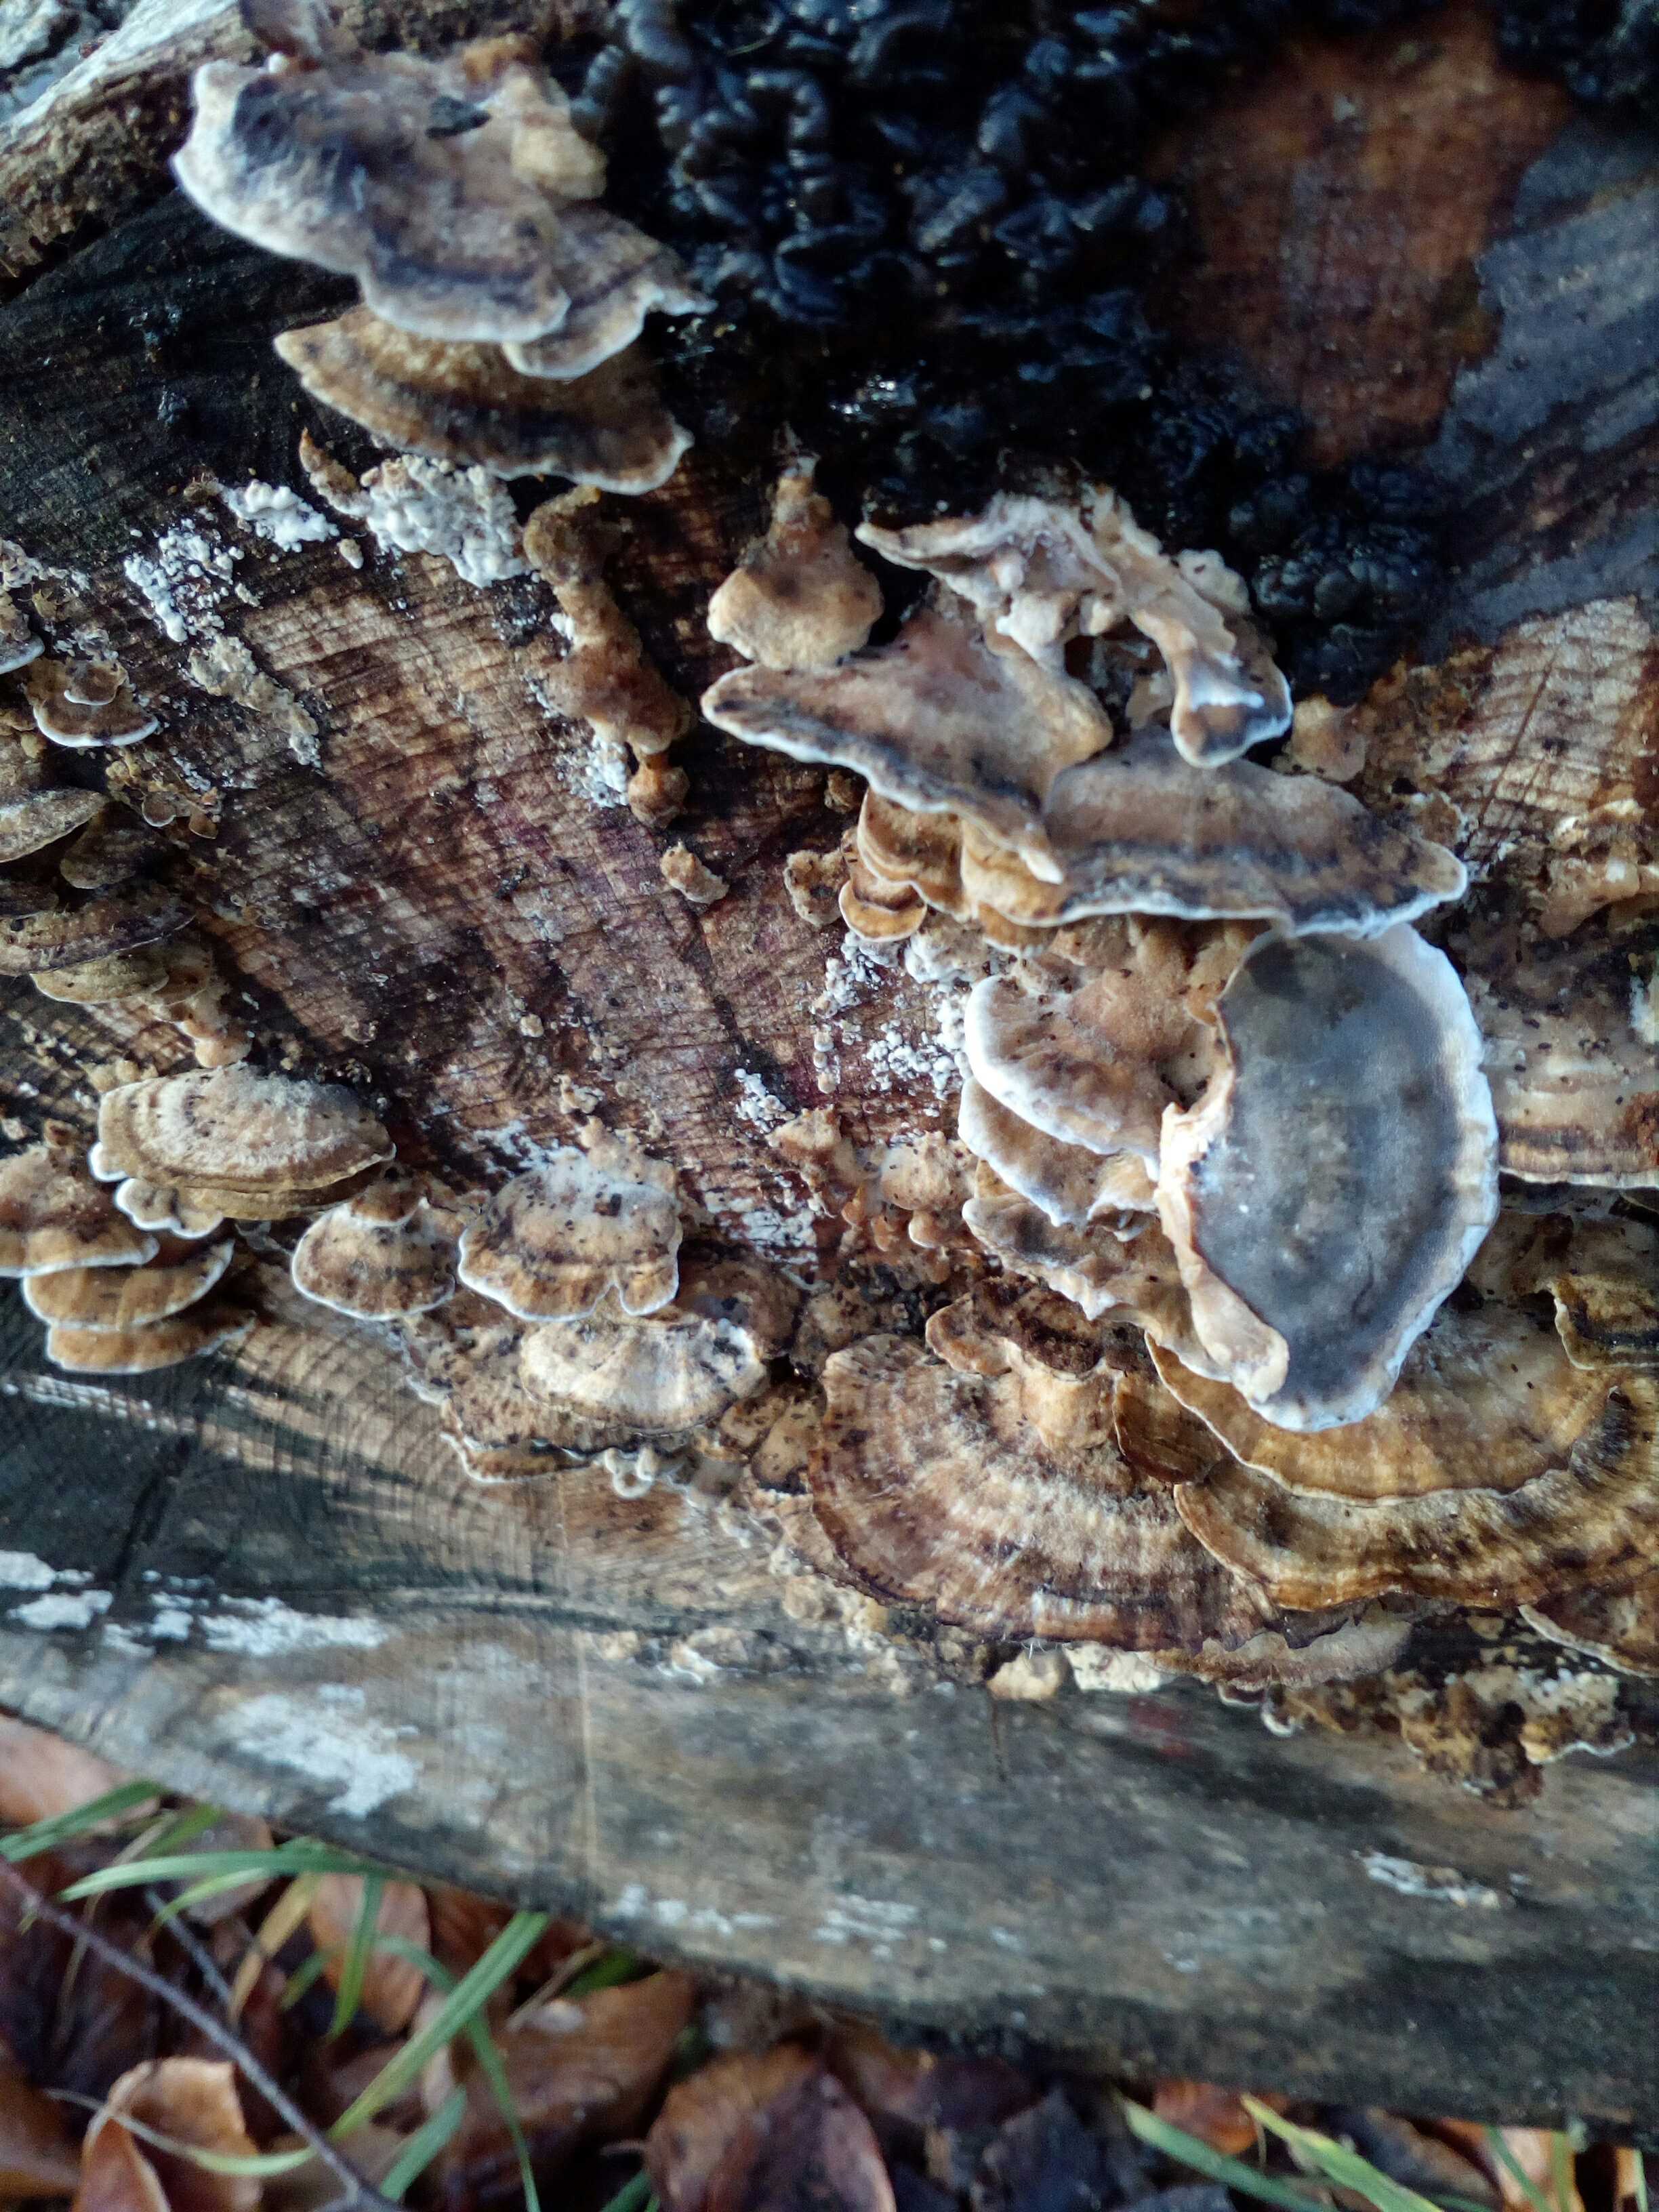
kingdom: Fungi
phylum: Basidiomycota
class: Agaricomycetes
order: Polyporales
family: Phanerochaetaceae
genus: Bjerkandera
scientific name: Bjerkandera adusta
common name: sveden sodporesvamp
